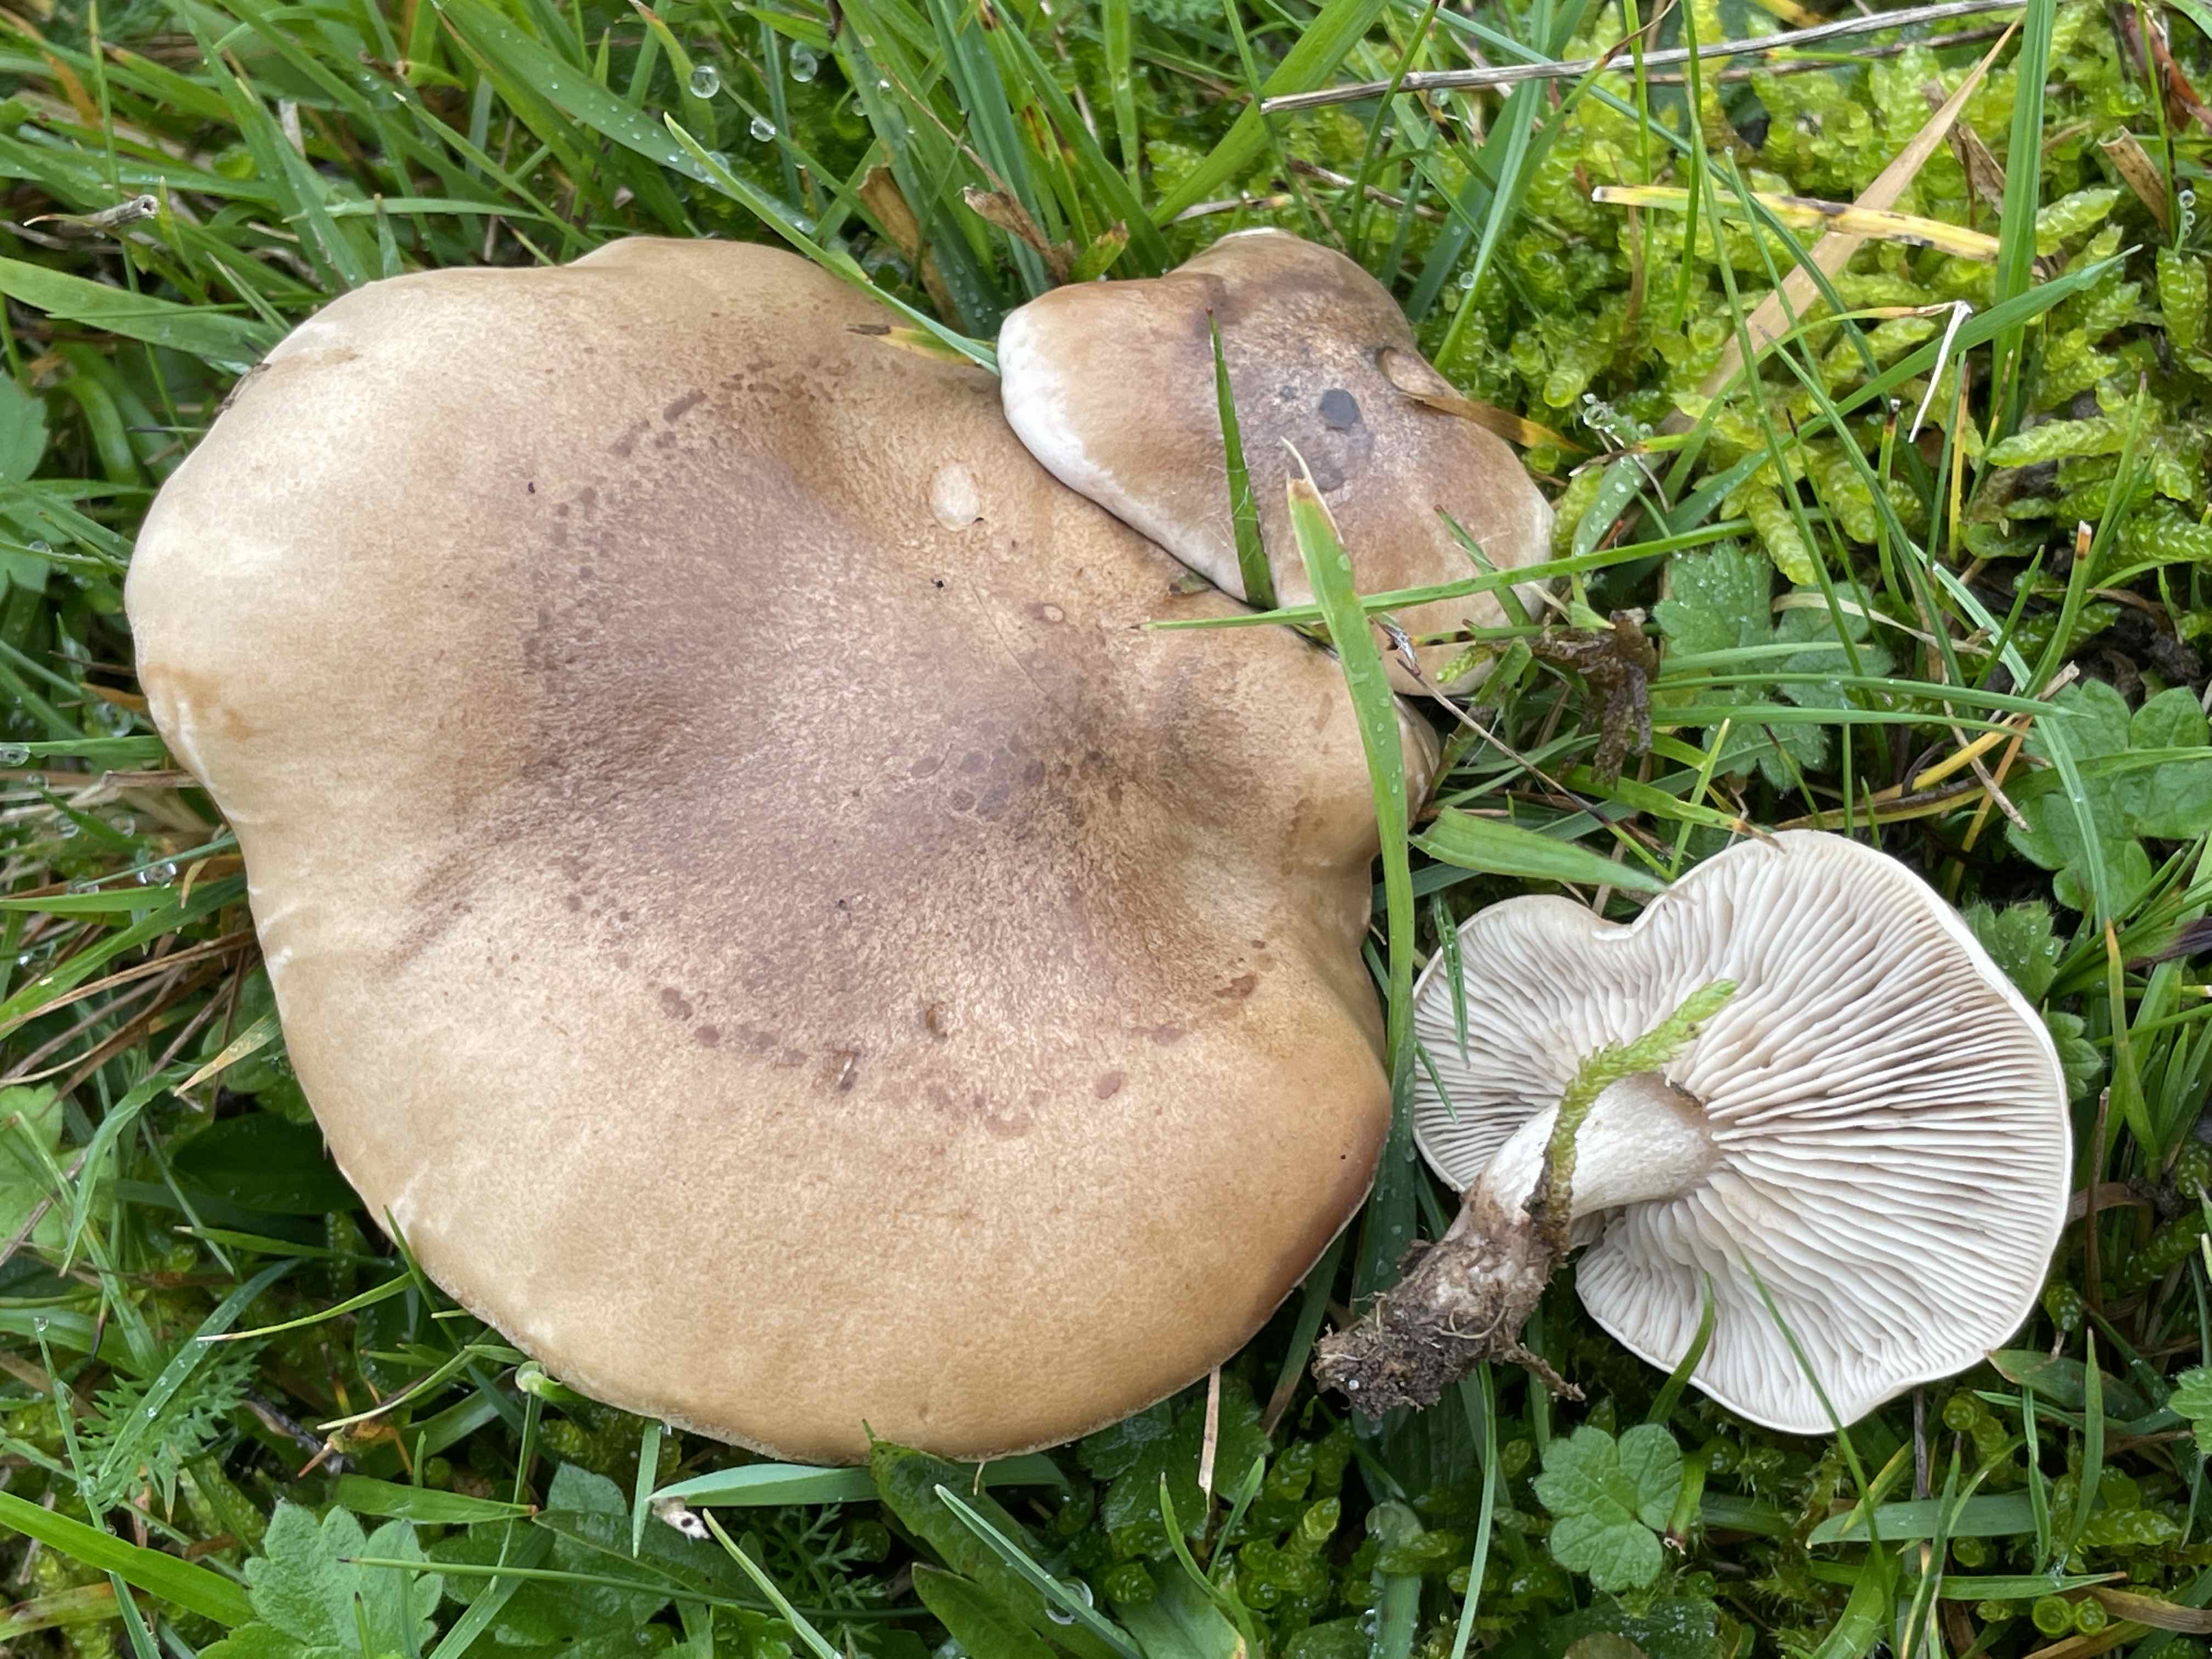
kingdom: Fungi
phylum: Basidiomycota
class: Agaricomycetes
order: Agaricales
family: Tricholomataceae
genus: Lepista
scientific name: Lepista panaeolus
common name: marmoreret hekseringshat
